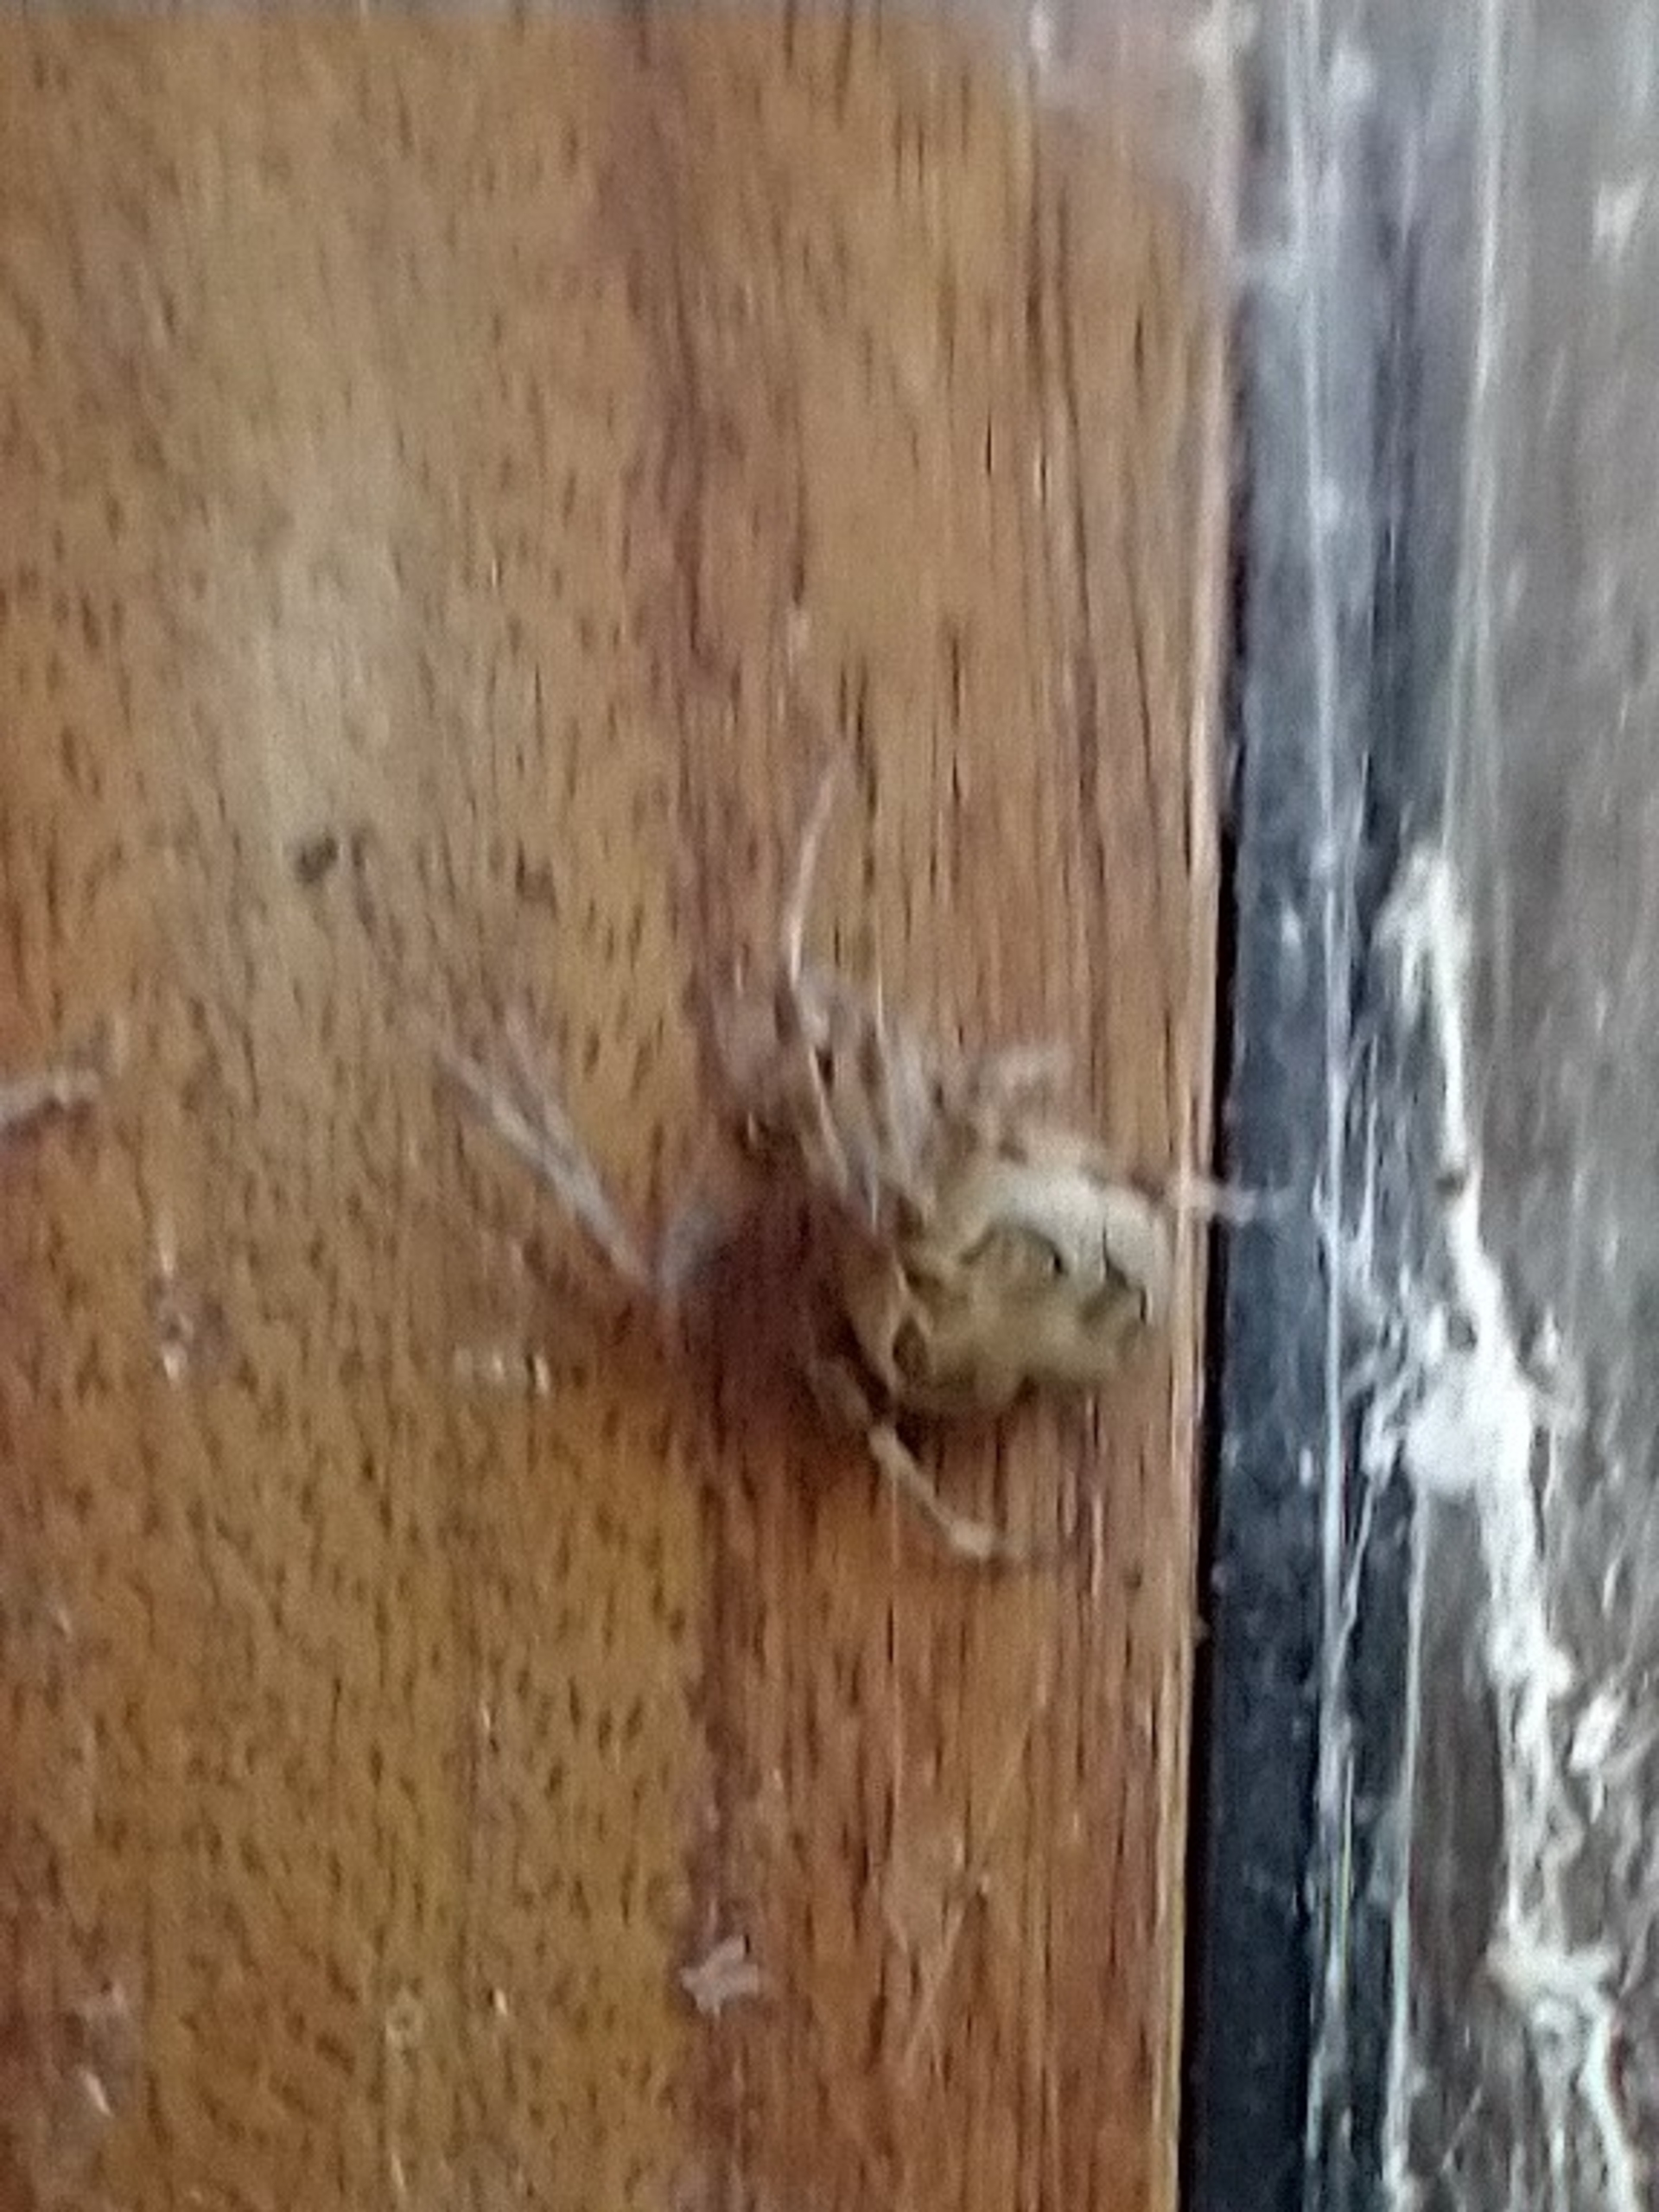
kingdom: Animalia
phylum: Arthropoda
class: Arachnida
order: Araneae
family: Araneidae
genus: Larinioides
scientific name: Larinioides sclopetarius
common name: Bolværksedderkop
